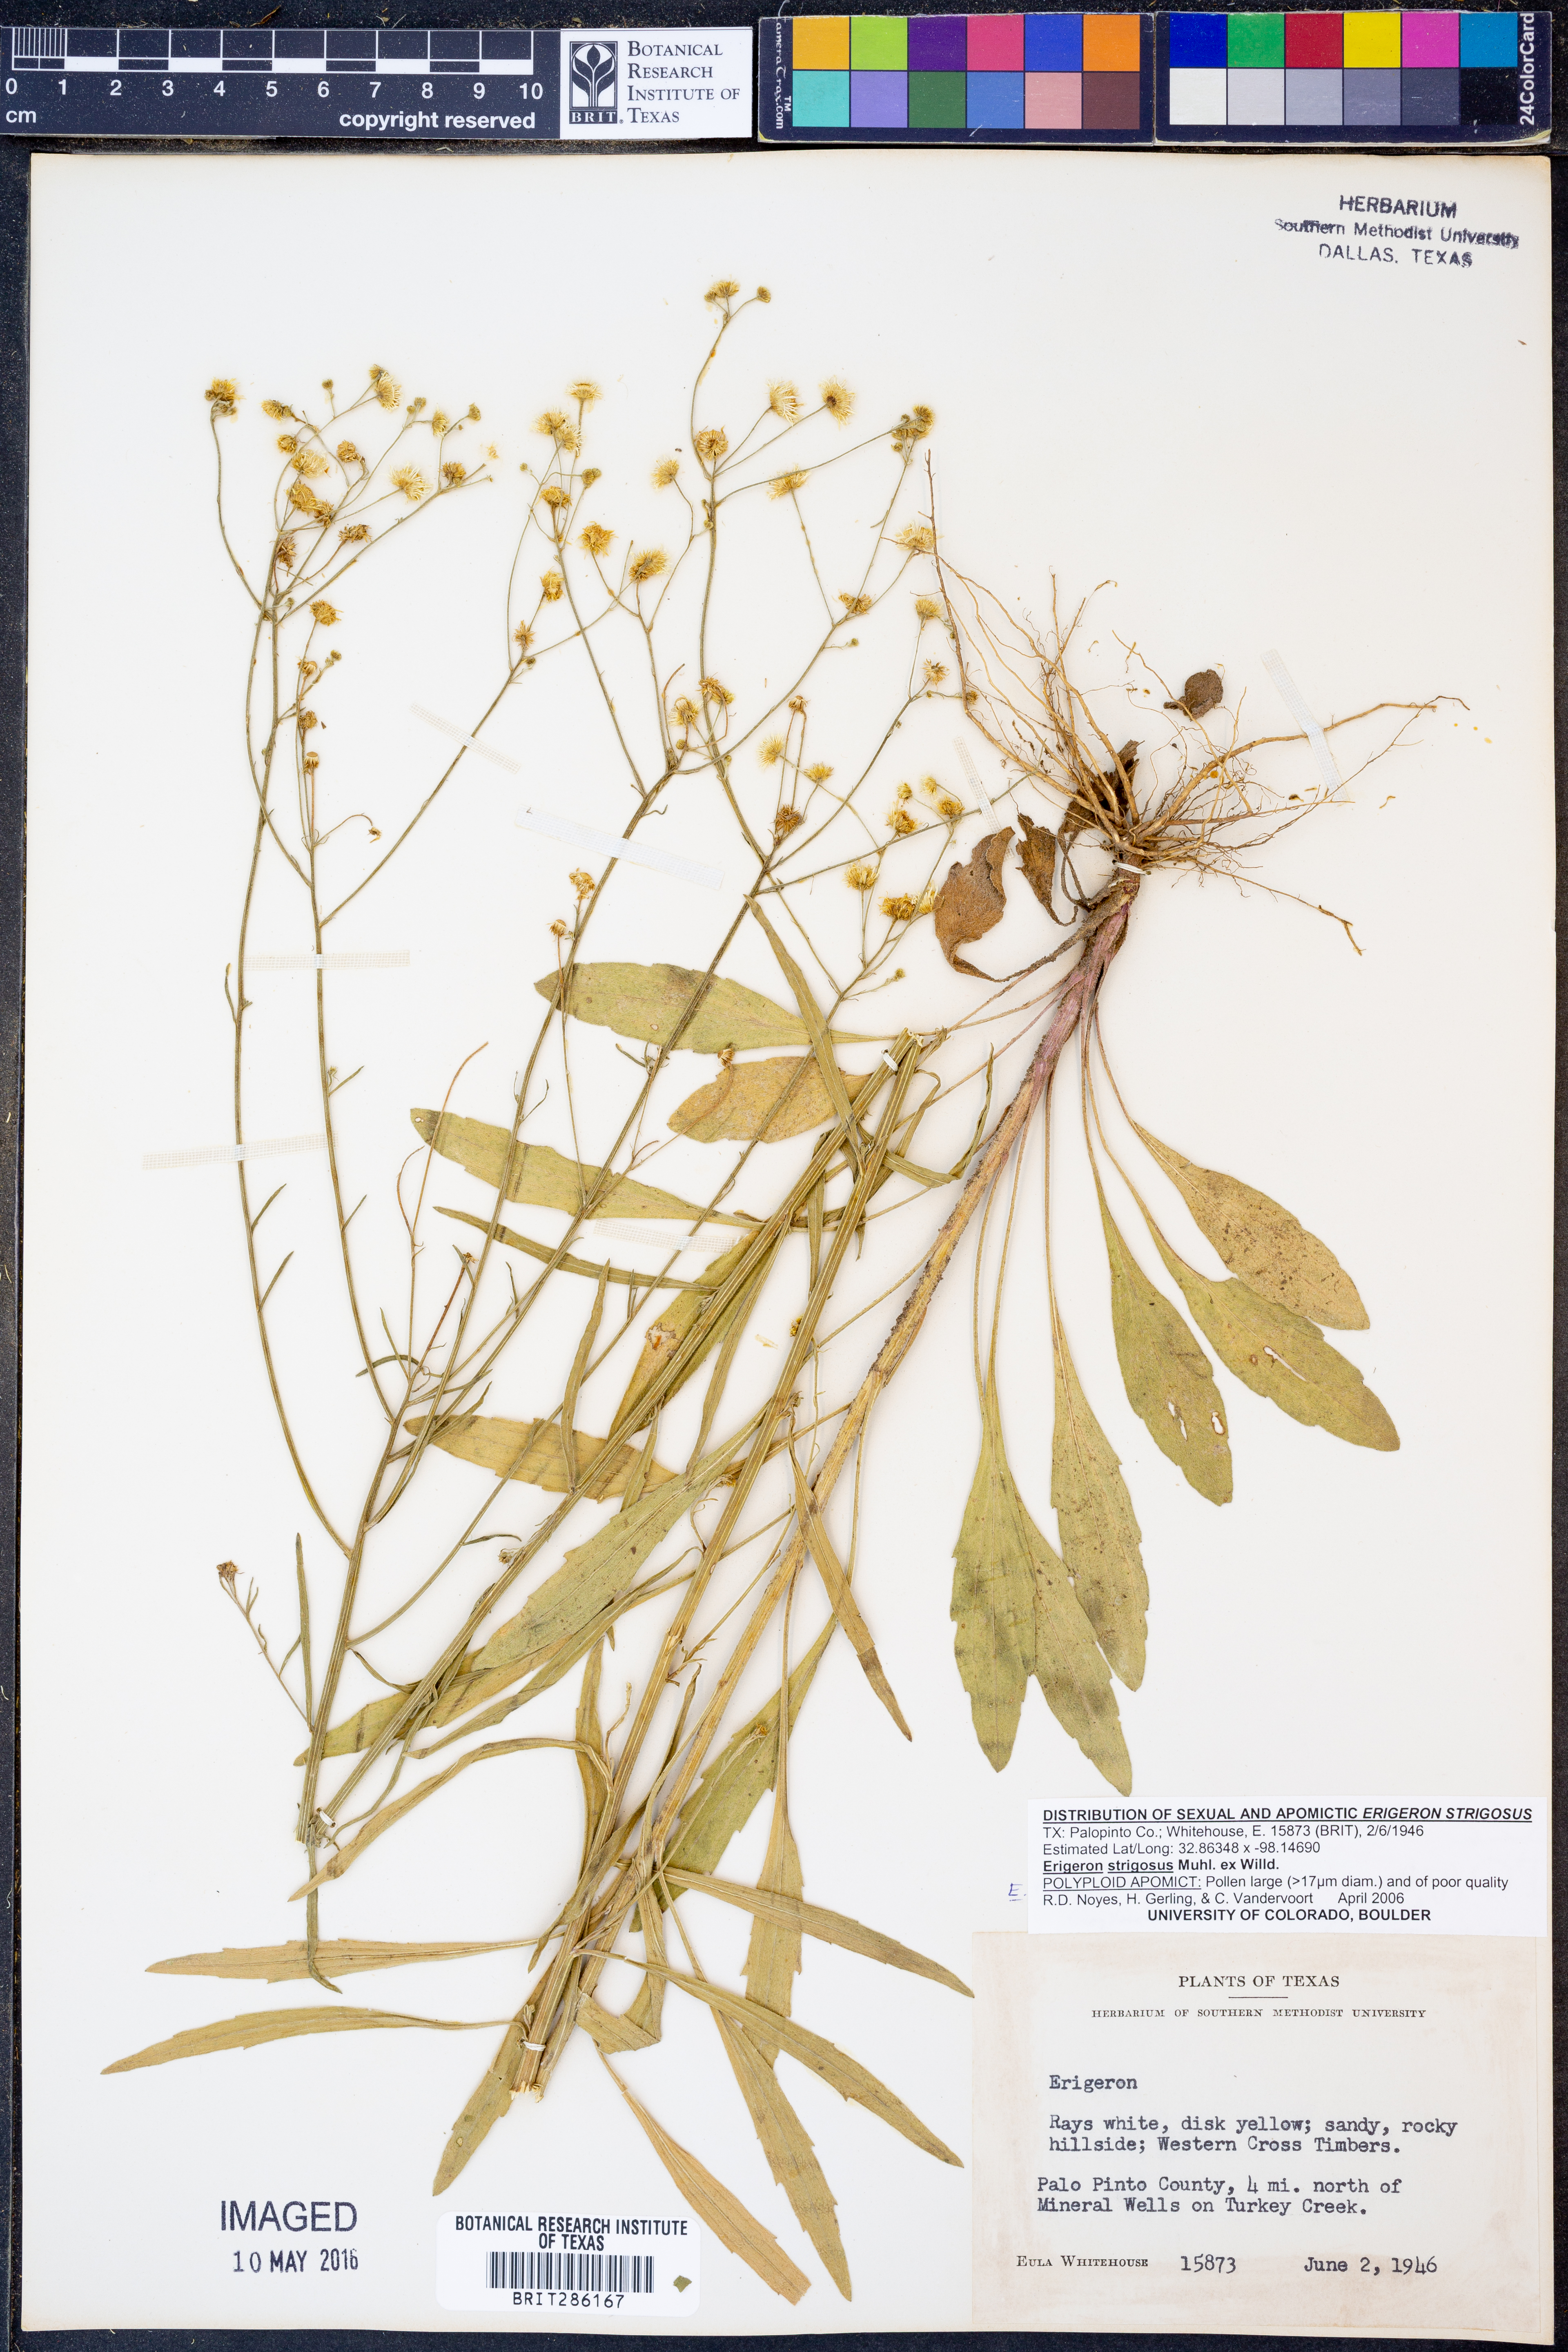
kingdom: Plantae
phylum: Tracheophyta
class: Magnoliopsida
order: Asterales
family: Asteraceae
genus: Erigeron
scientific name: Erigeron strigosus
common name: Common eastern fleabane
